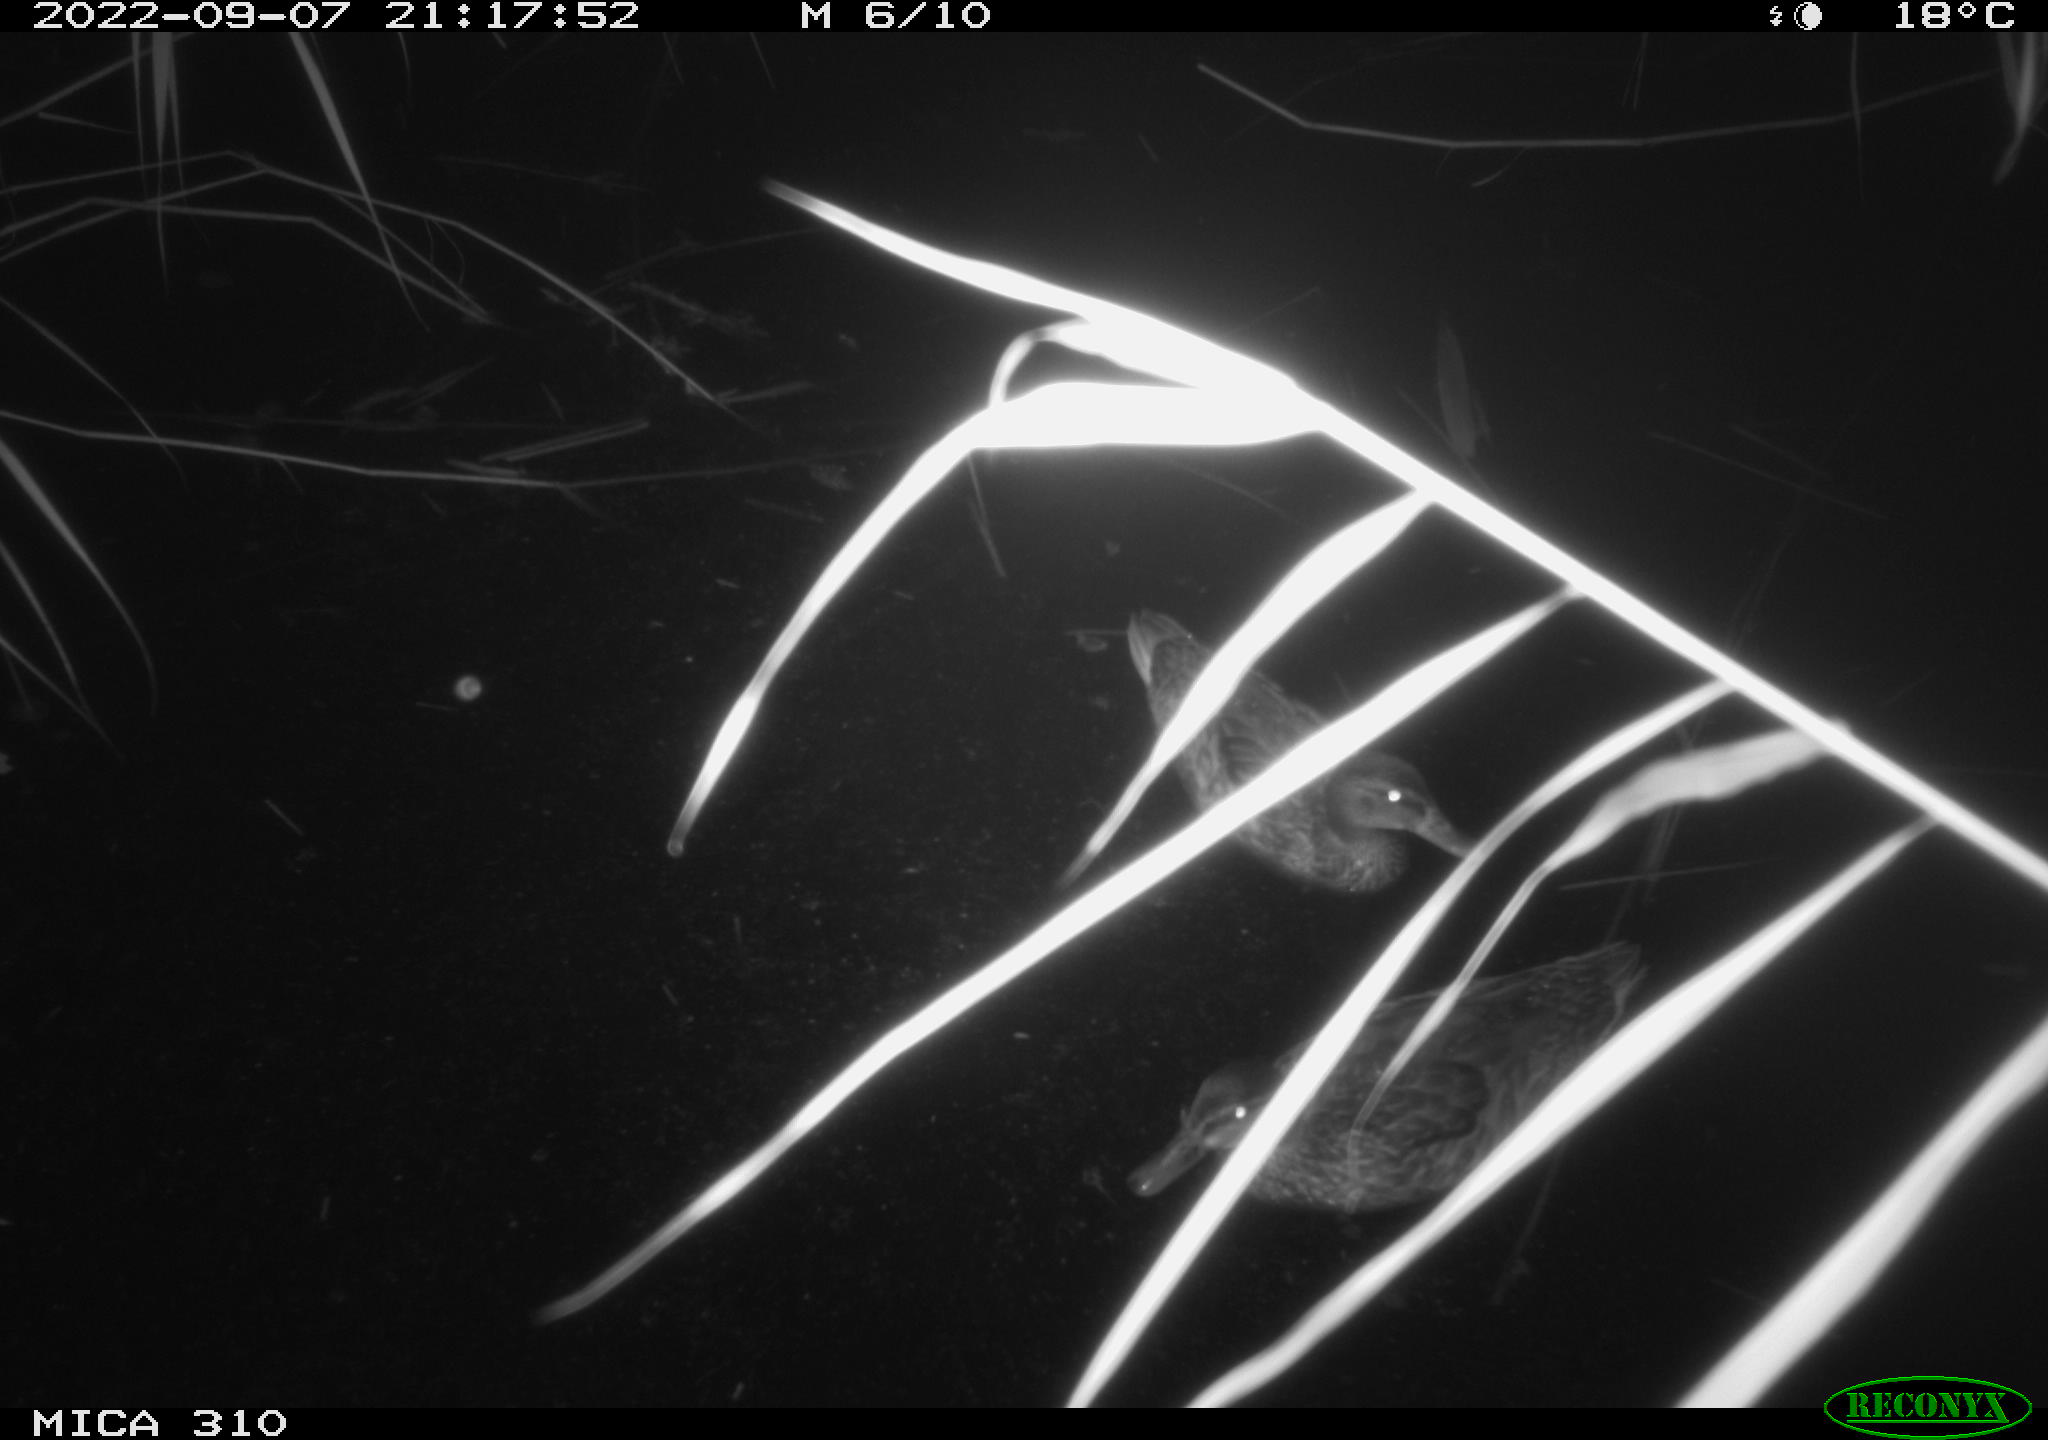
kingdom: Animalia
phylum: Chordata
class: Aves
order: Anseriformes
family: Anatidae
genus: Anas
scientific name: Anas
